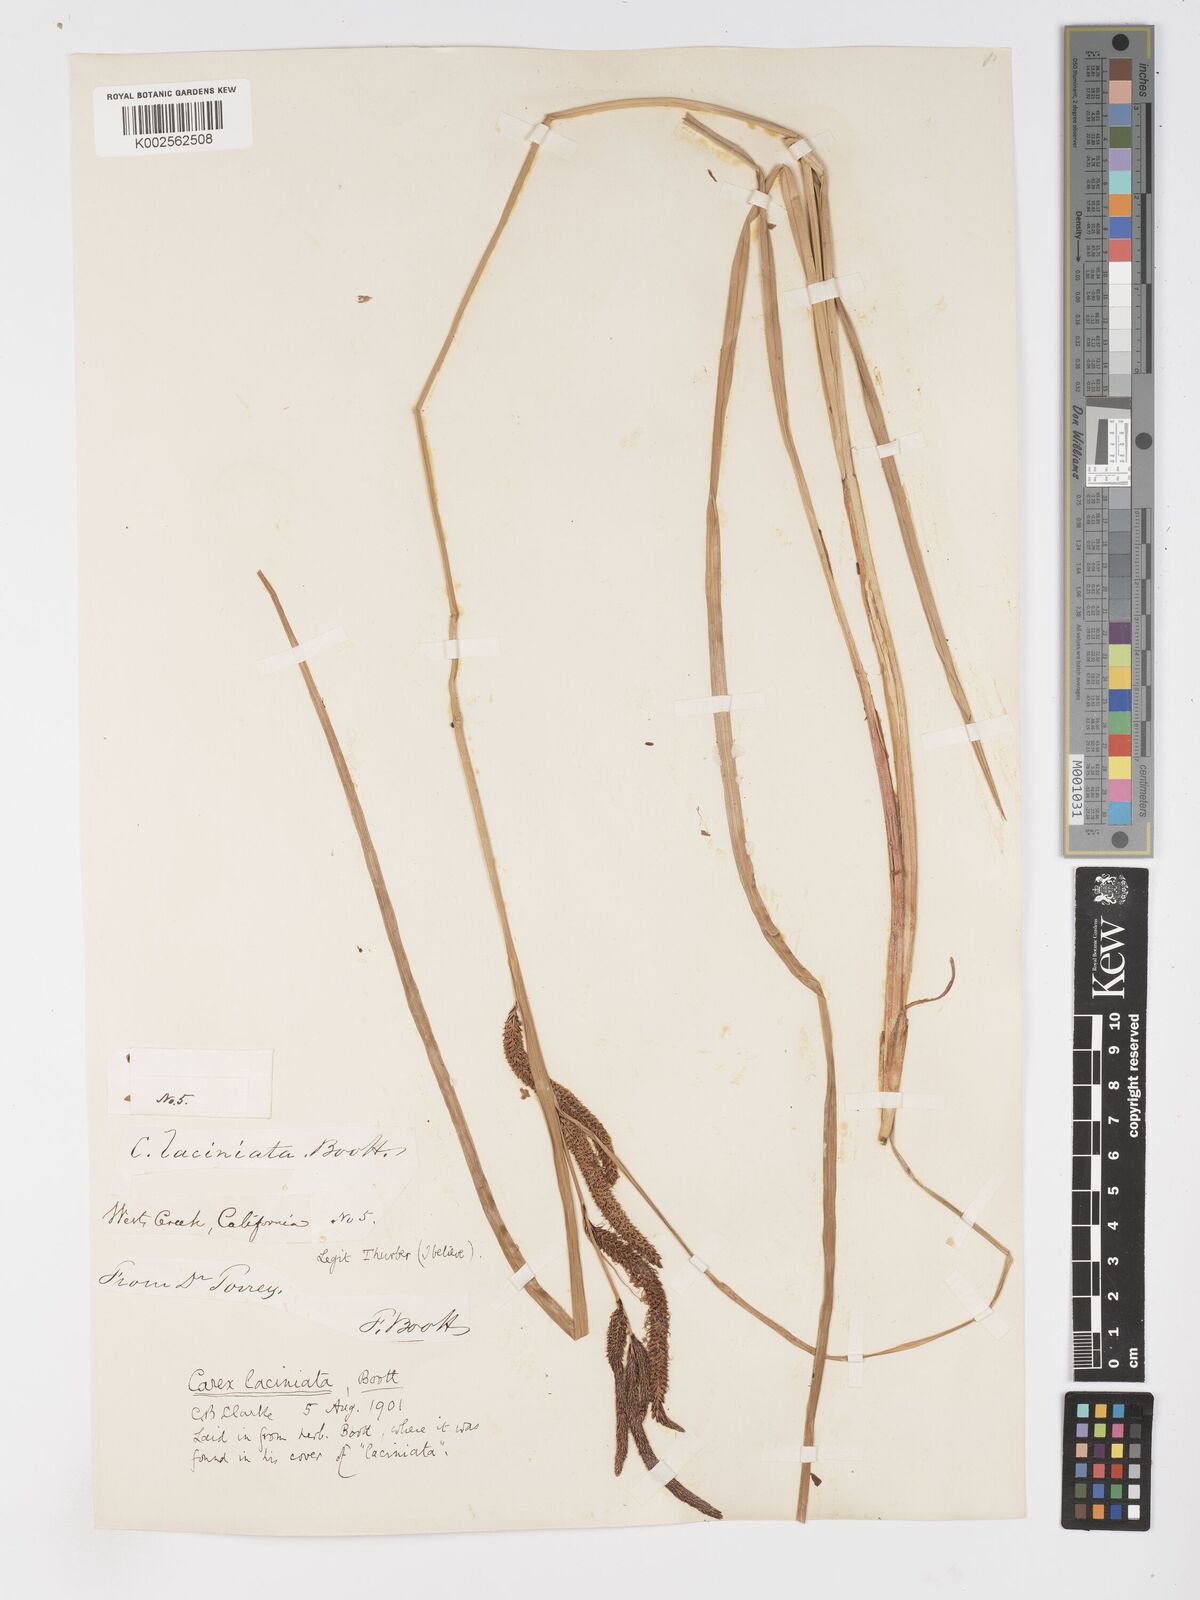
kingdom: Plantae
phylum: Tracheophyta
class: Liliopsida
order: Poales
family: Cyperaceae
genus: Carex
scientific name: Carex barbarae
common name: Santa barbara sedge
